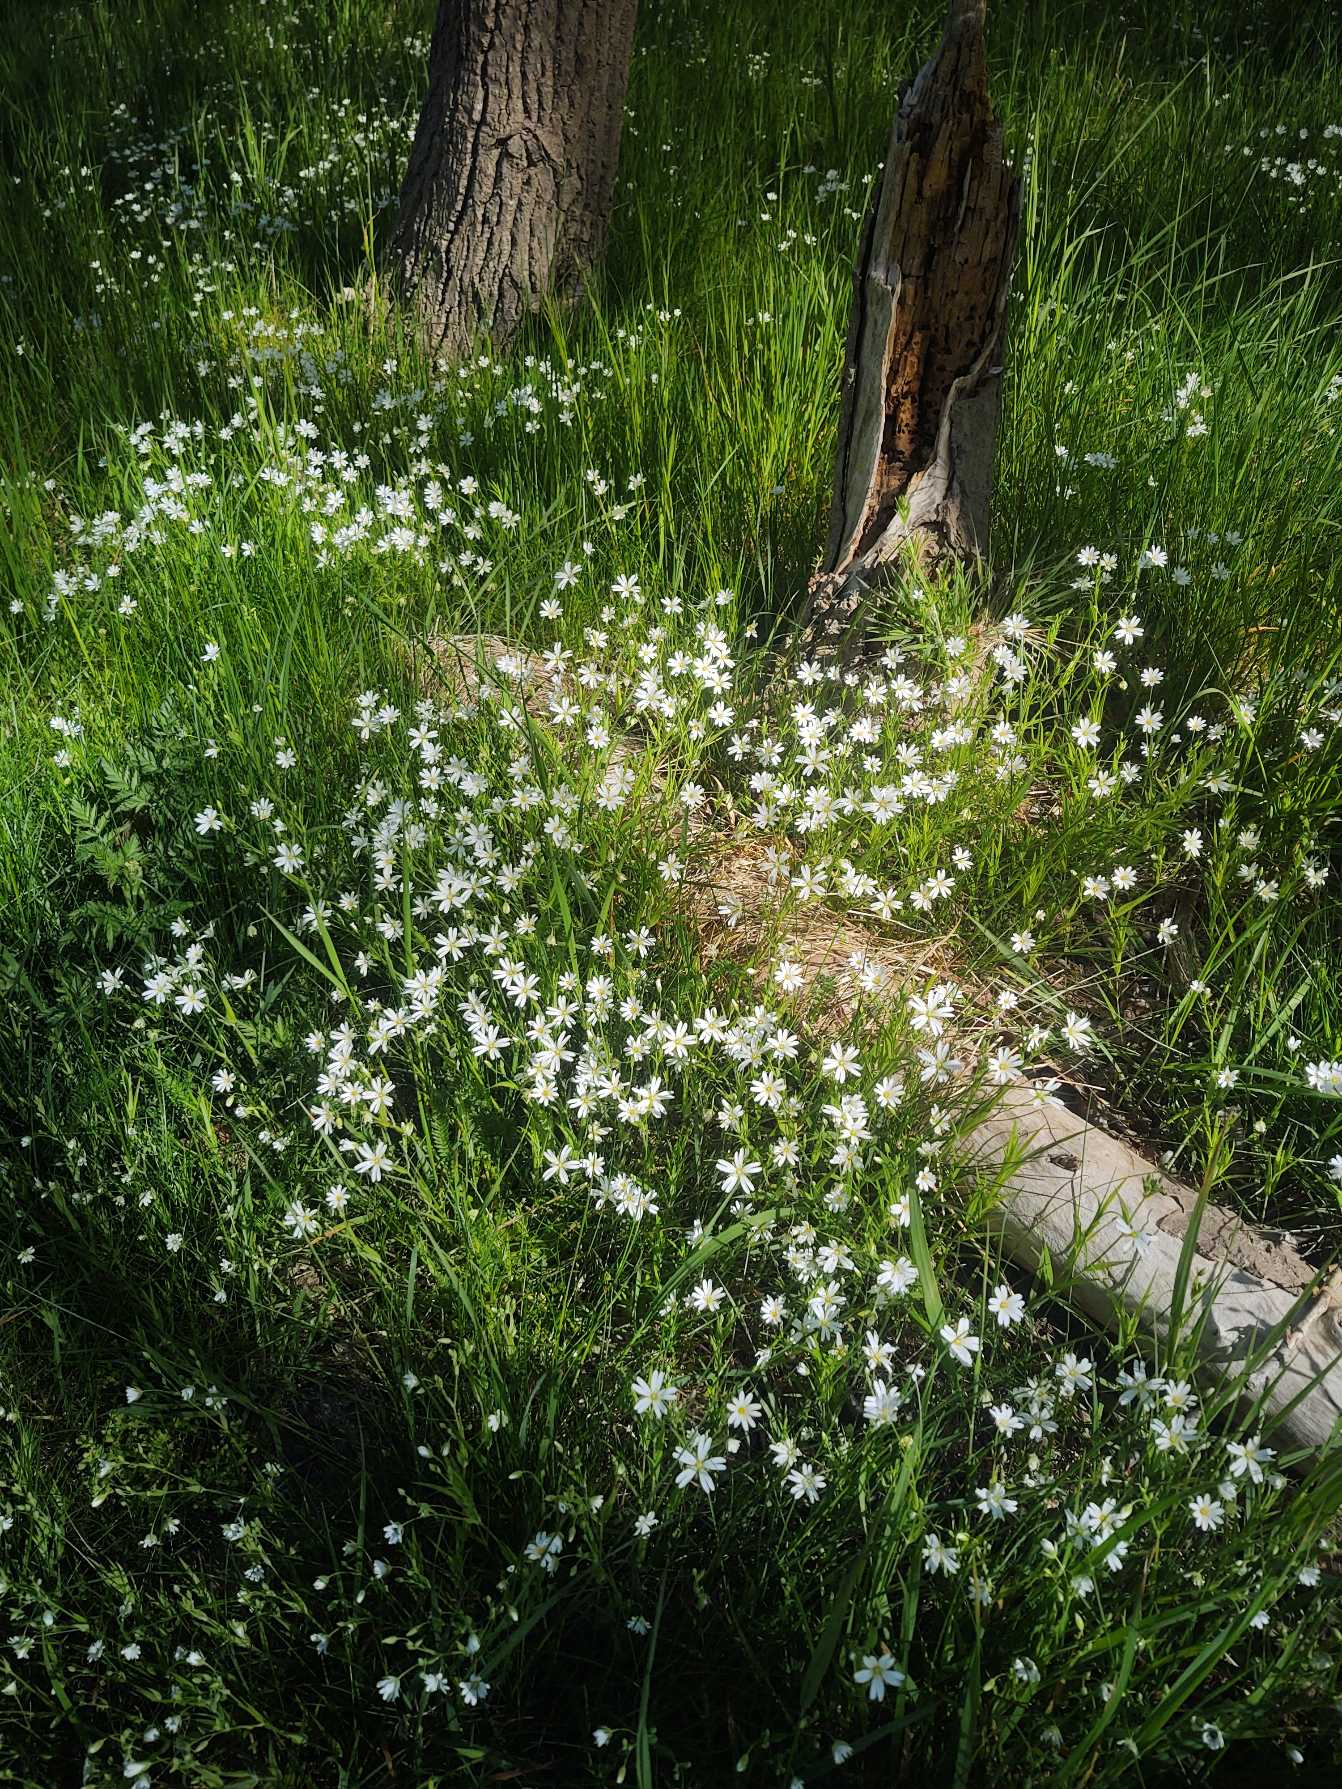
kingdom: Plantae
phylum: Tracheophyta
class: Magnoliopsida
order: Caryophyllales
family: Caryophyllaceae
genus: Rabelera
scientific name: Rabelera holostea
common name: Stor fladstjerne
